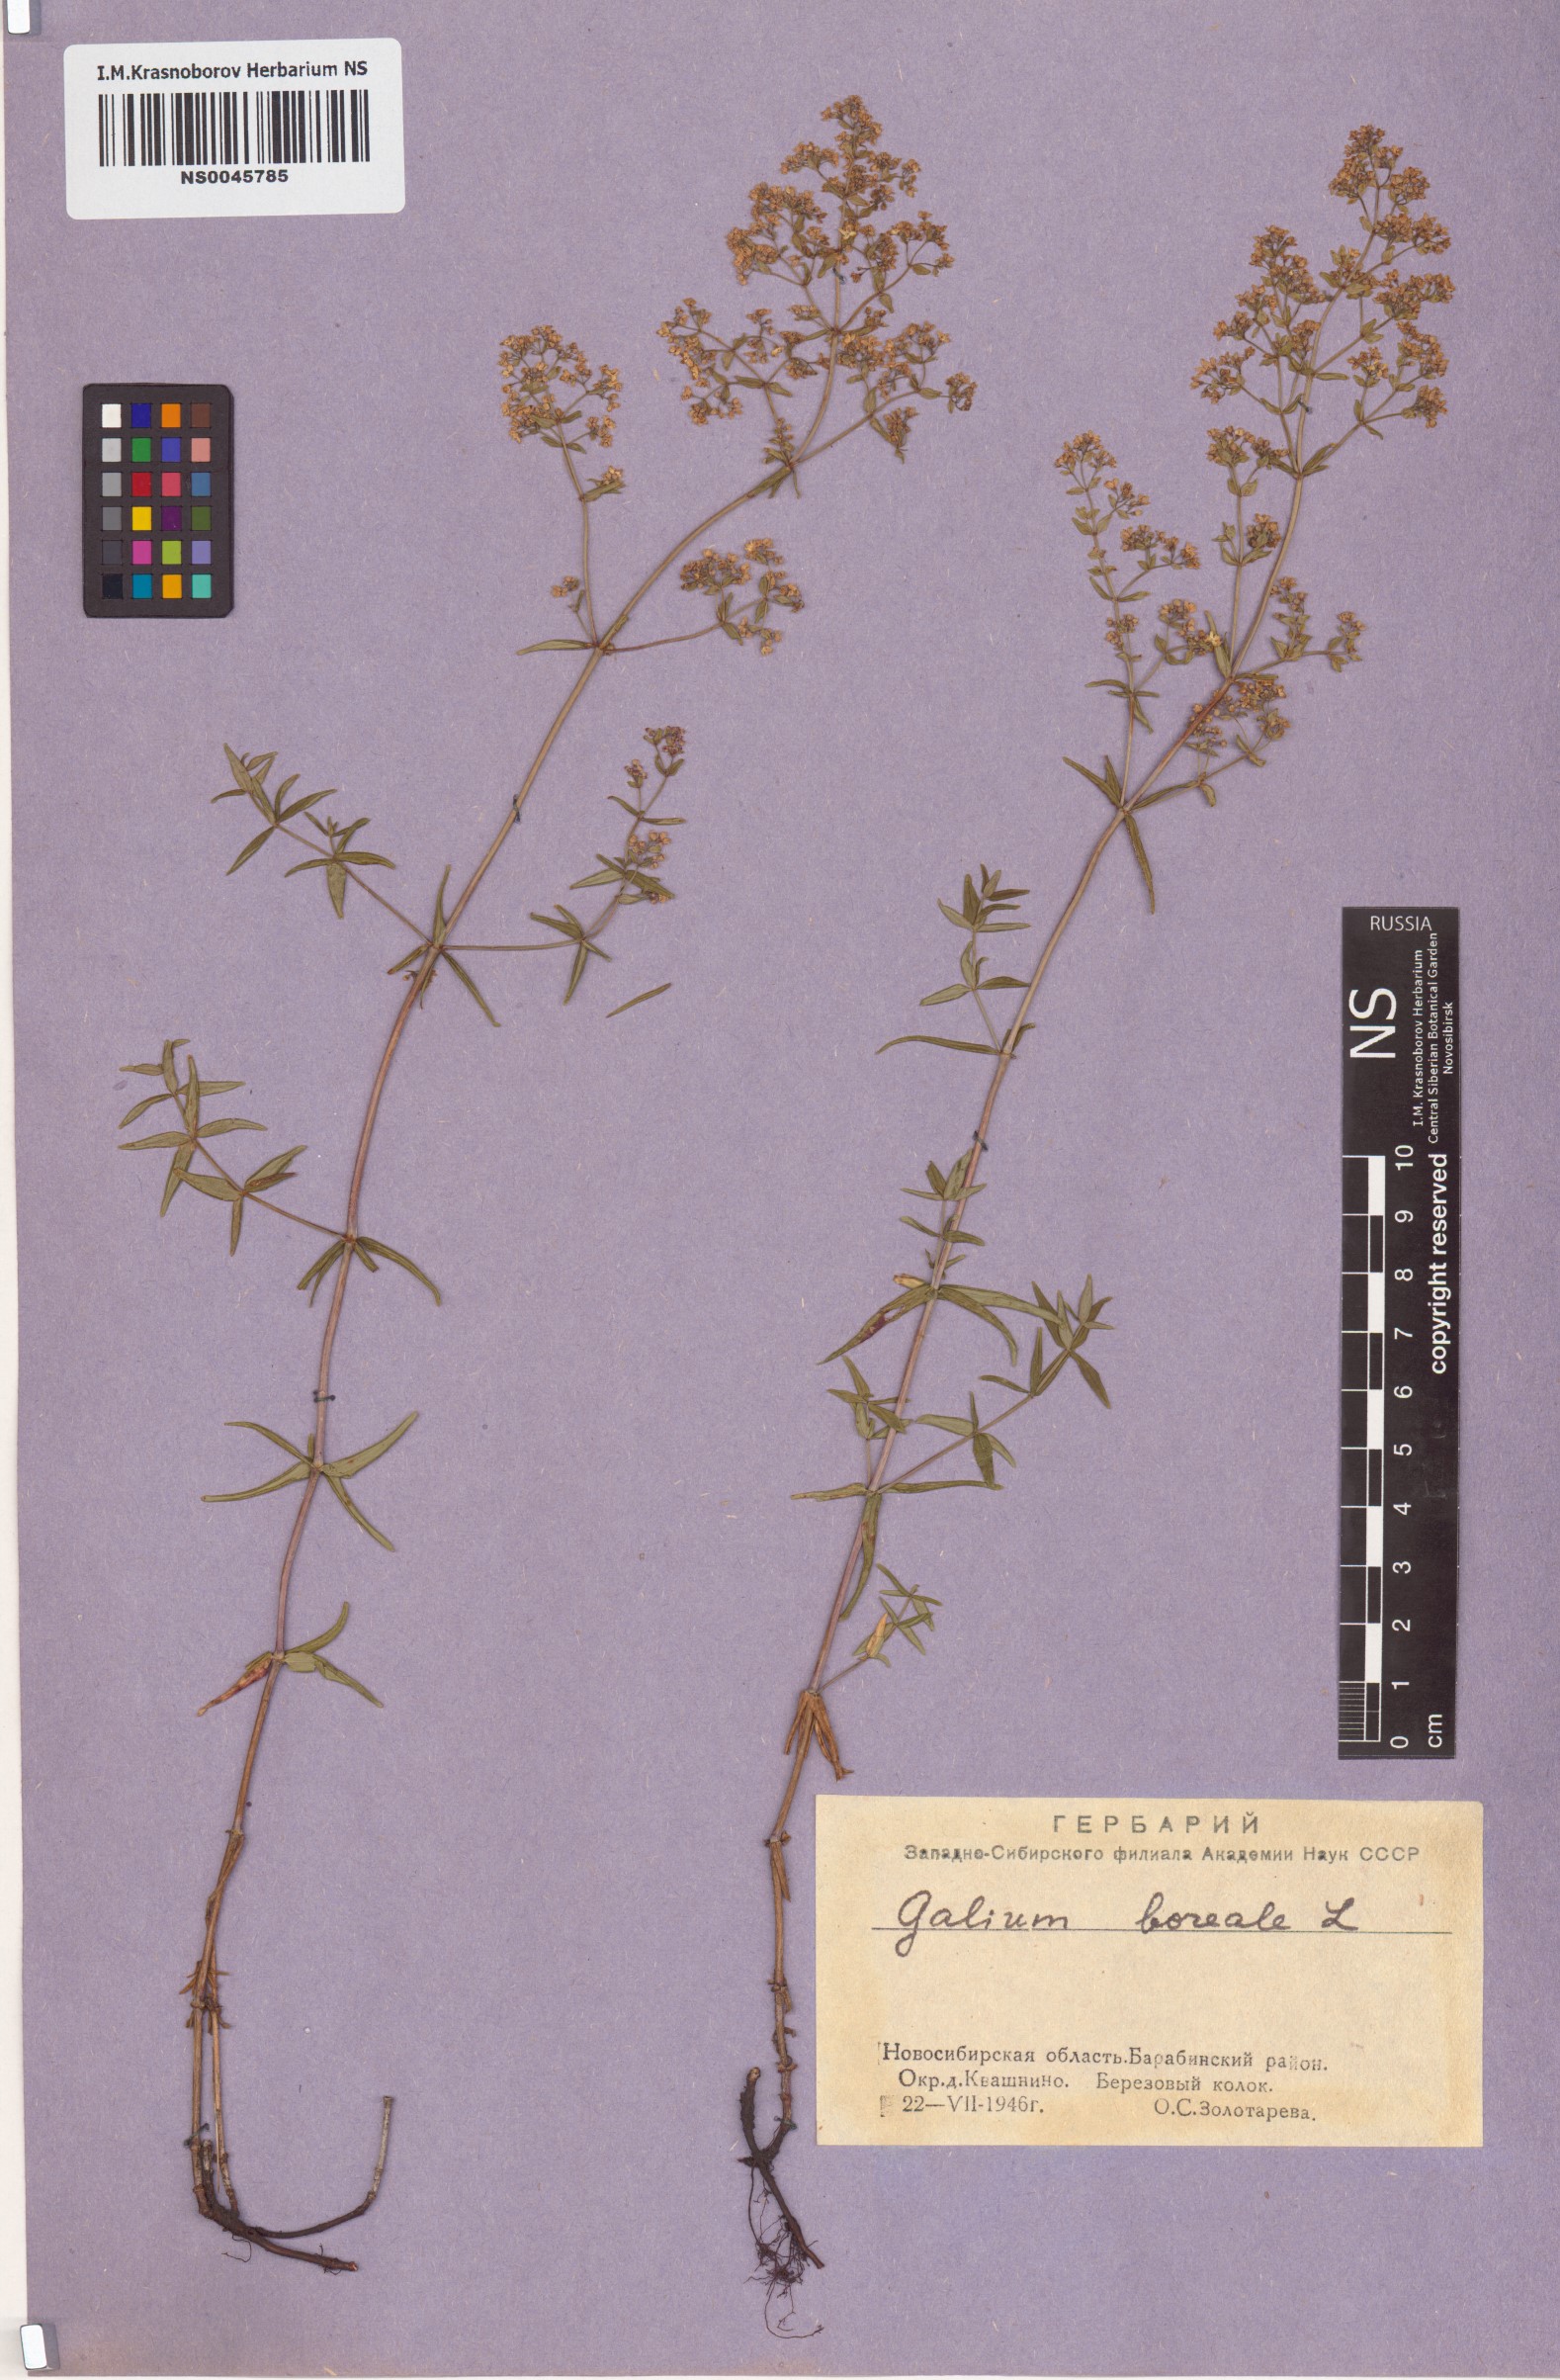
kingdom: Plantae
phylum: Tracheophyta
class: Magnoliopsida
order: Gentianales
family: Rubiaceae
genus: Galium
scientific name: Galium boreale
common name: Northern bedstraw
